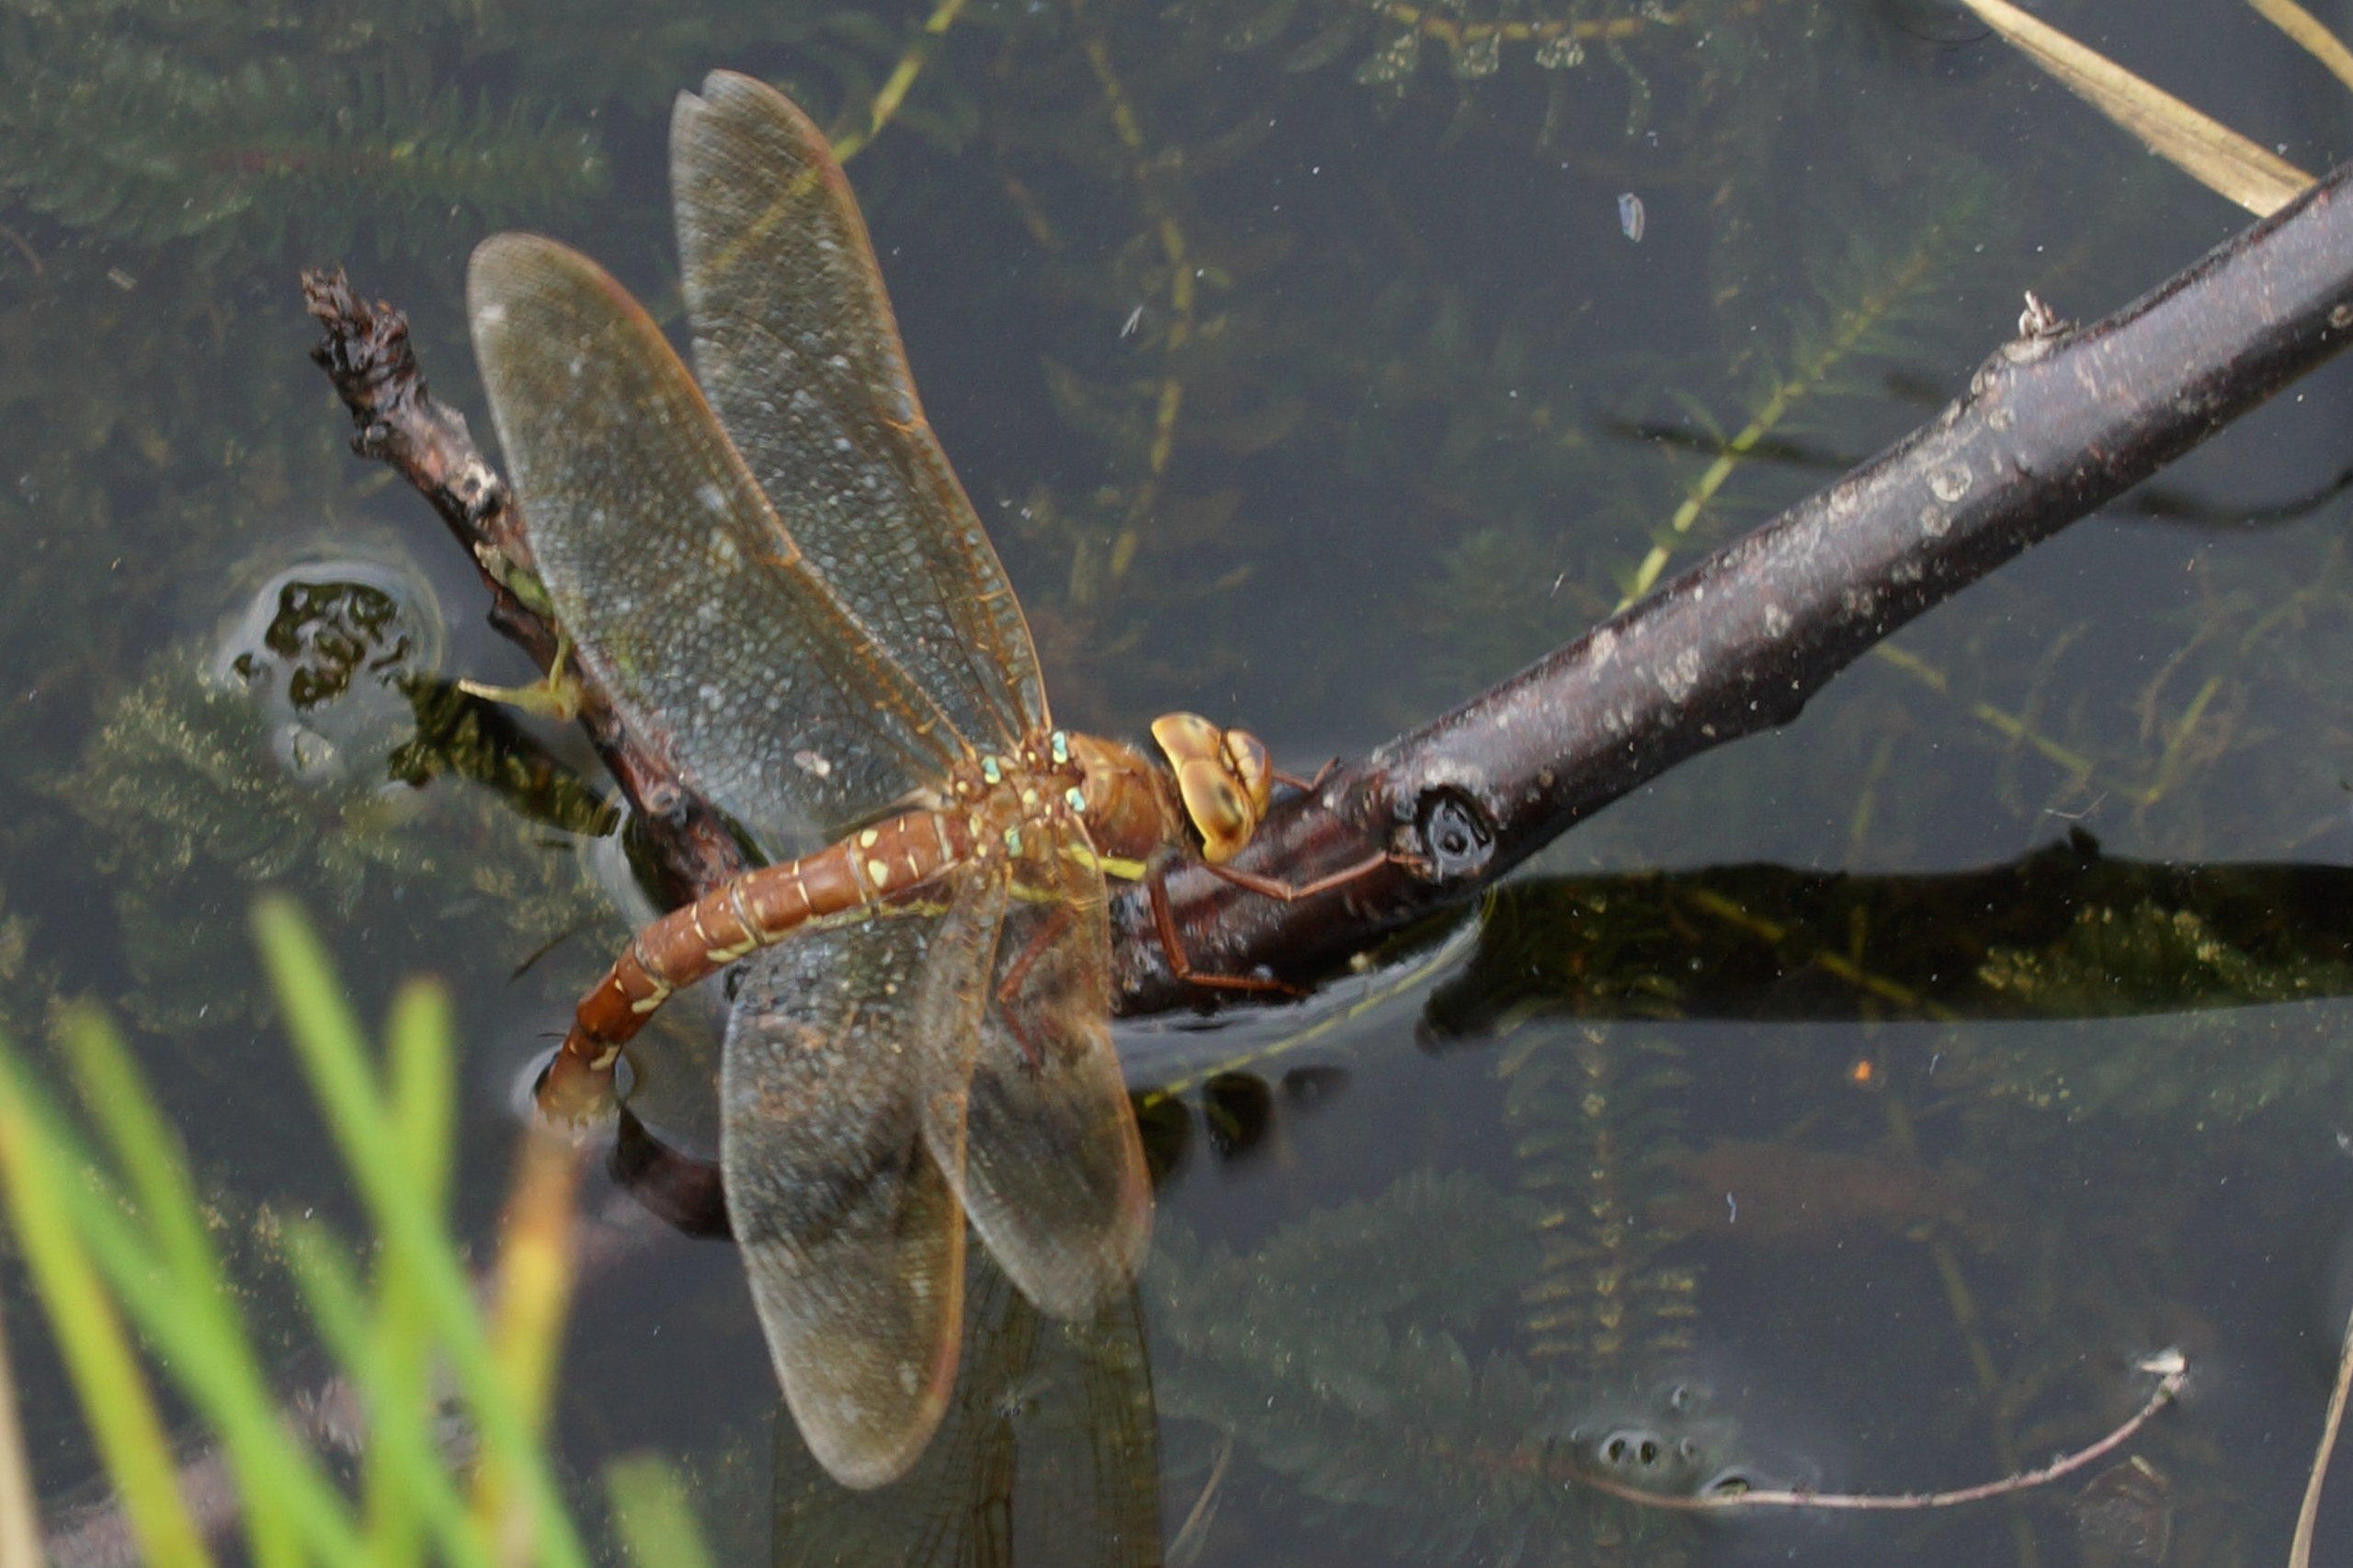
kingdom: Animalia
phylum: Arthropoda
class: Insecta
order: Odonata
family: Aeshnidae
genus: Aeshna
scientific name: Aeshna grandis
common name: Brun mosaikguldsmed
